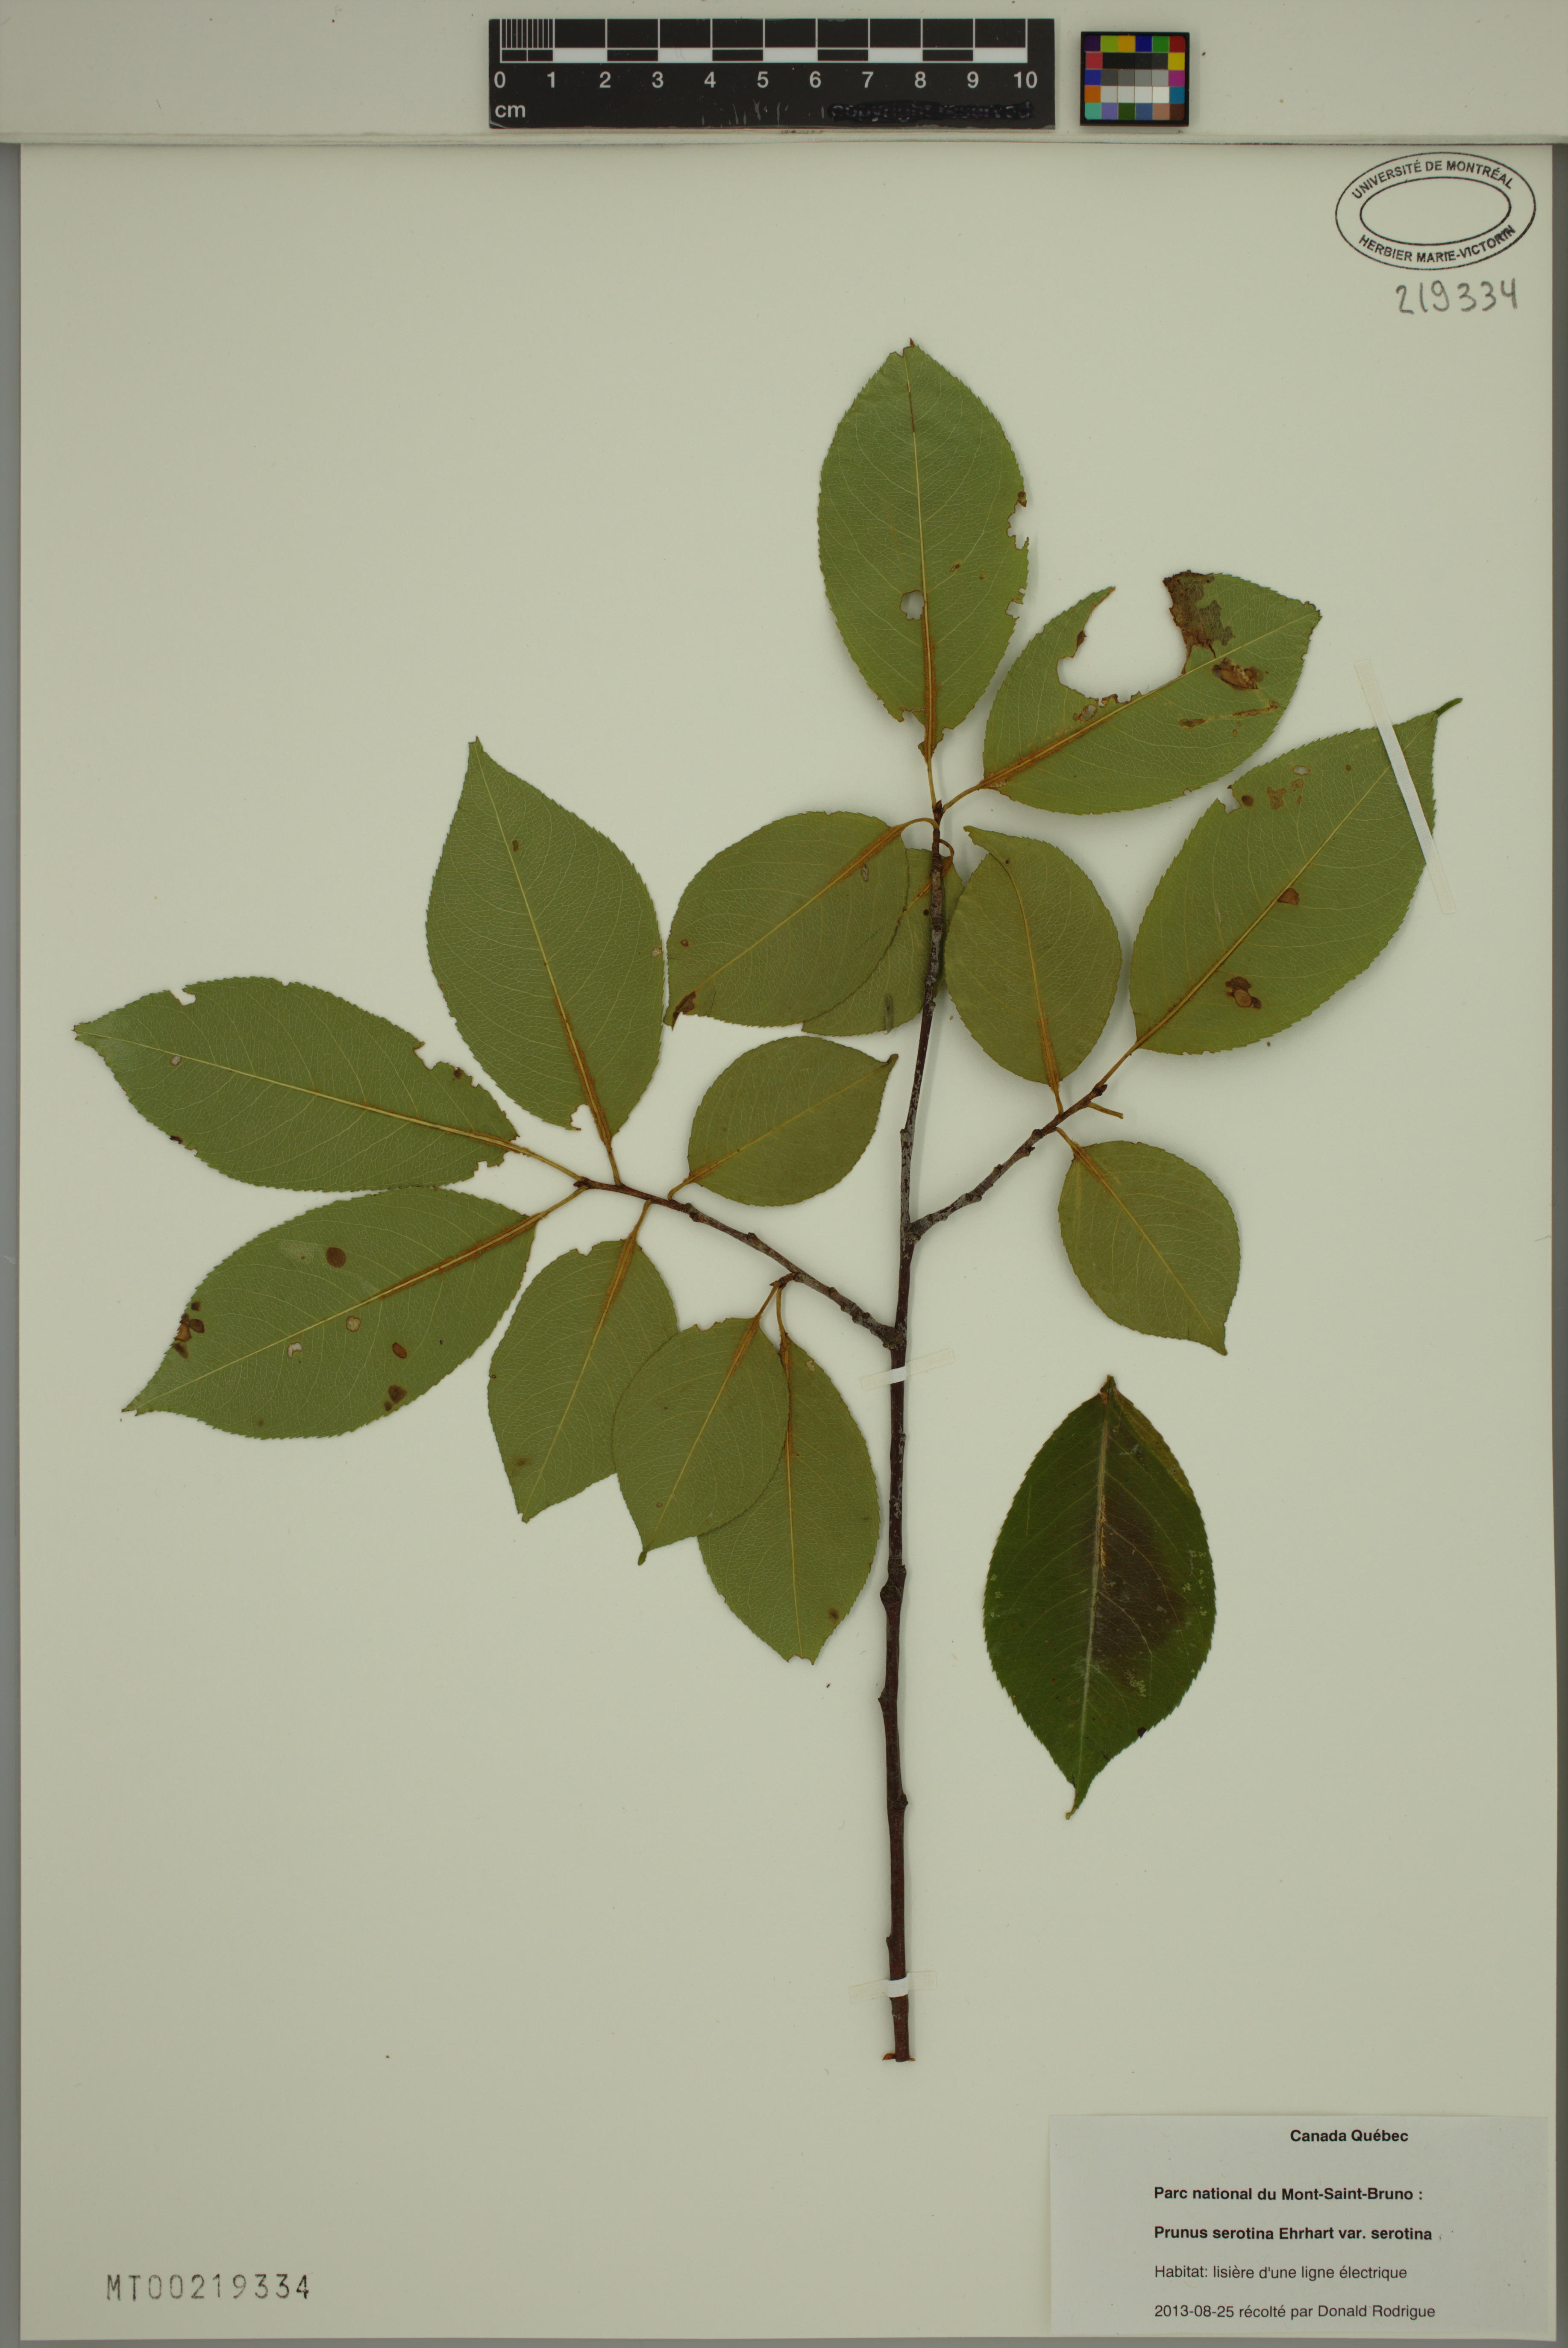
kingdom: Plantae
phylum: Tracheophyta
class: Magnoliopsida
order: Rosales
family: Rosaceae
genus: Prunus
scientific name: Prunus serotina
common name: Black cherry
